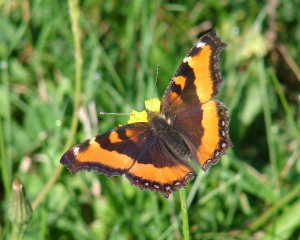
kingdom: Animalia
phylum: Arthropoda
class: Insecta
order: Lepidoptera
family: Nymphalidae
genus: Aglais
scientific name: Aglais milberti
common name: Milbert's Tortoiseshell
